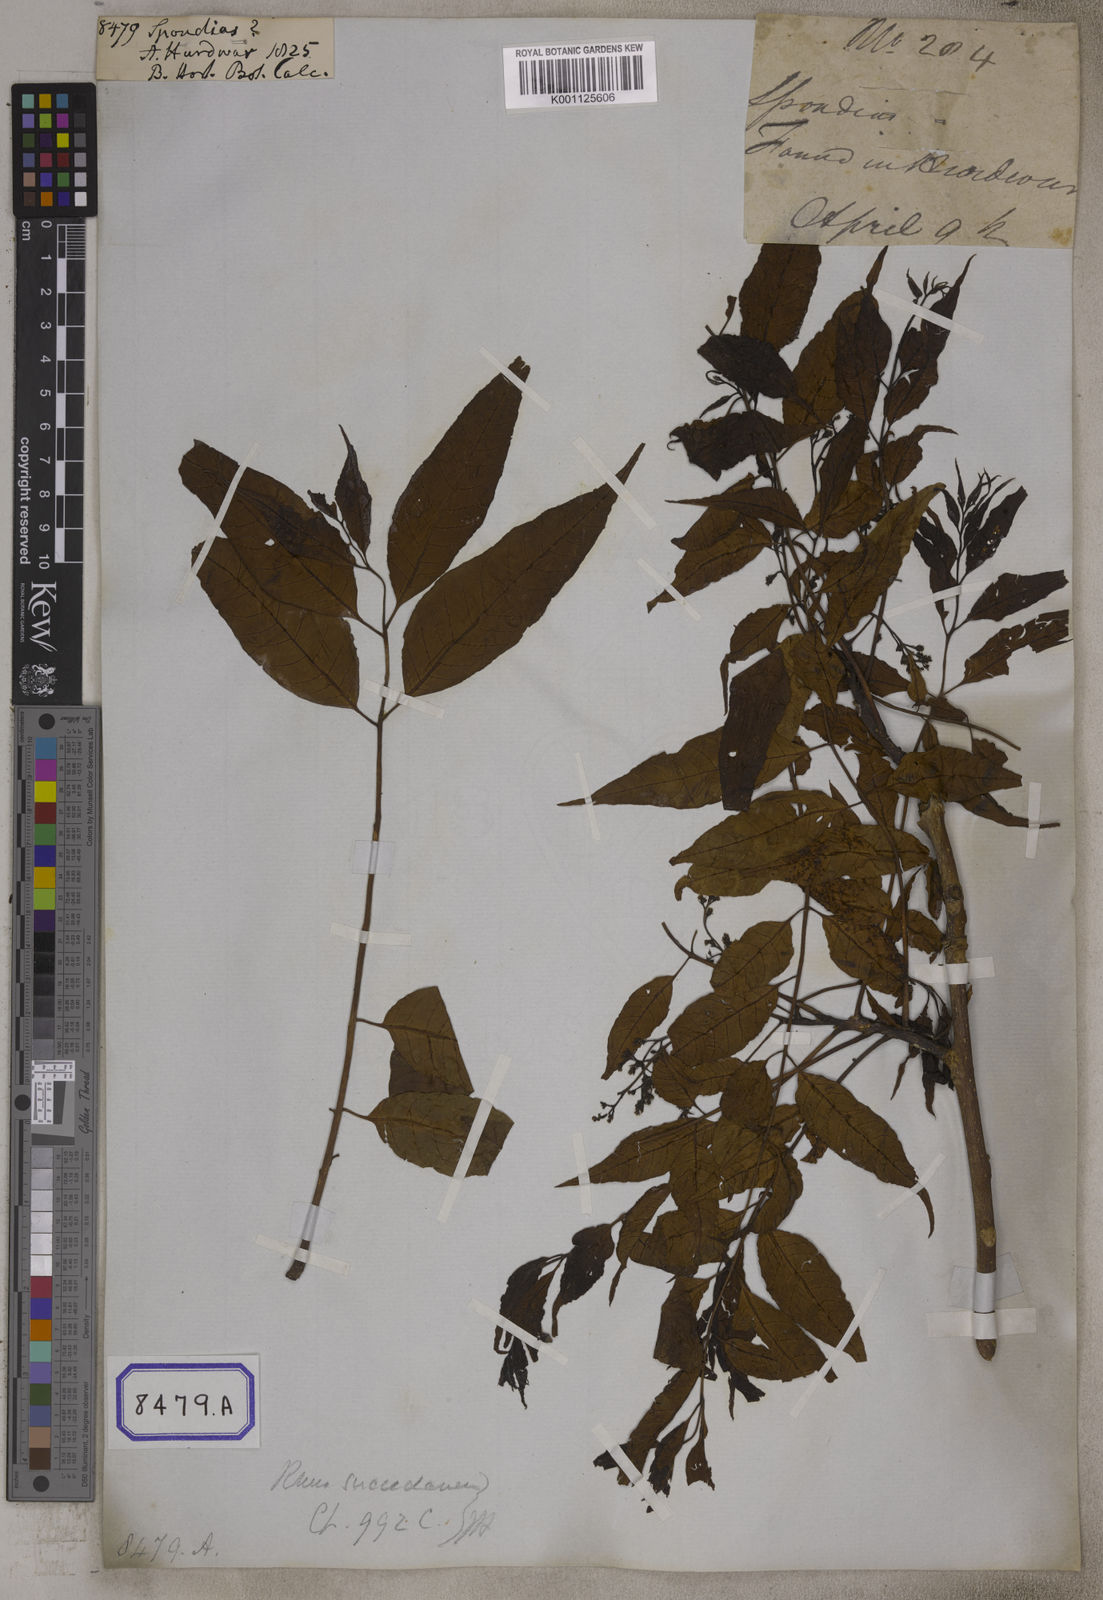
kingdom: Plantae
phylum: Tracheophyta
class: Magnoliopsida
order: Sapindales
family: Anacardiaceae
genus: Spondias
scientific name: Spondias
